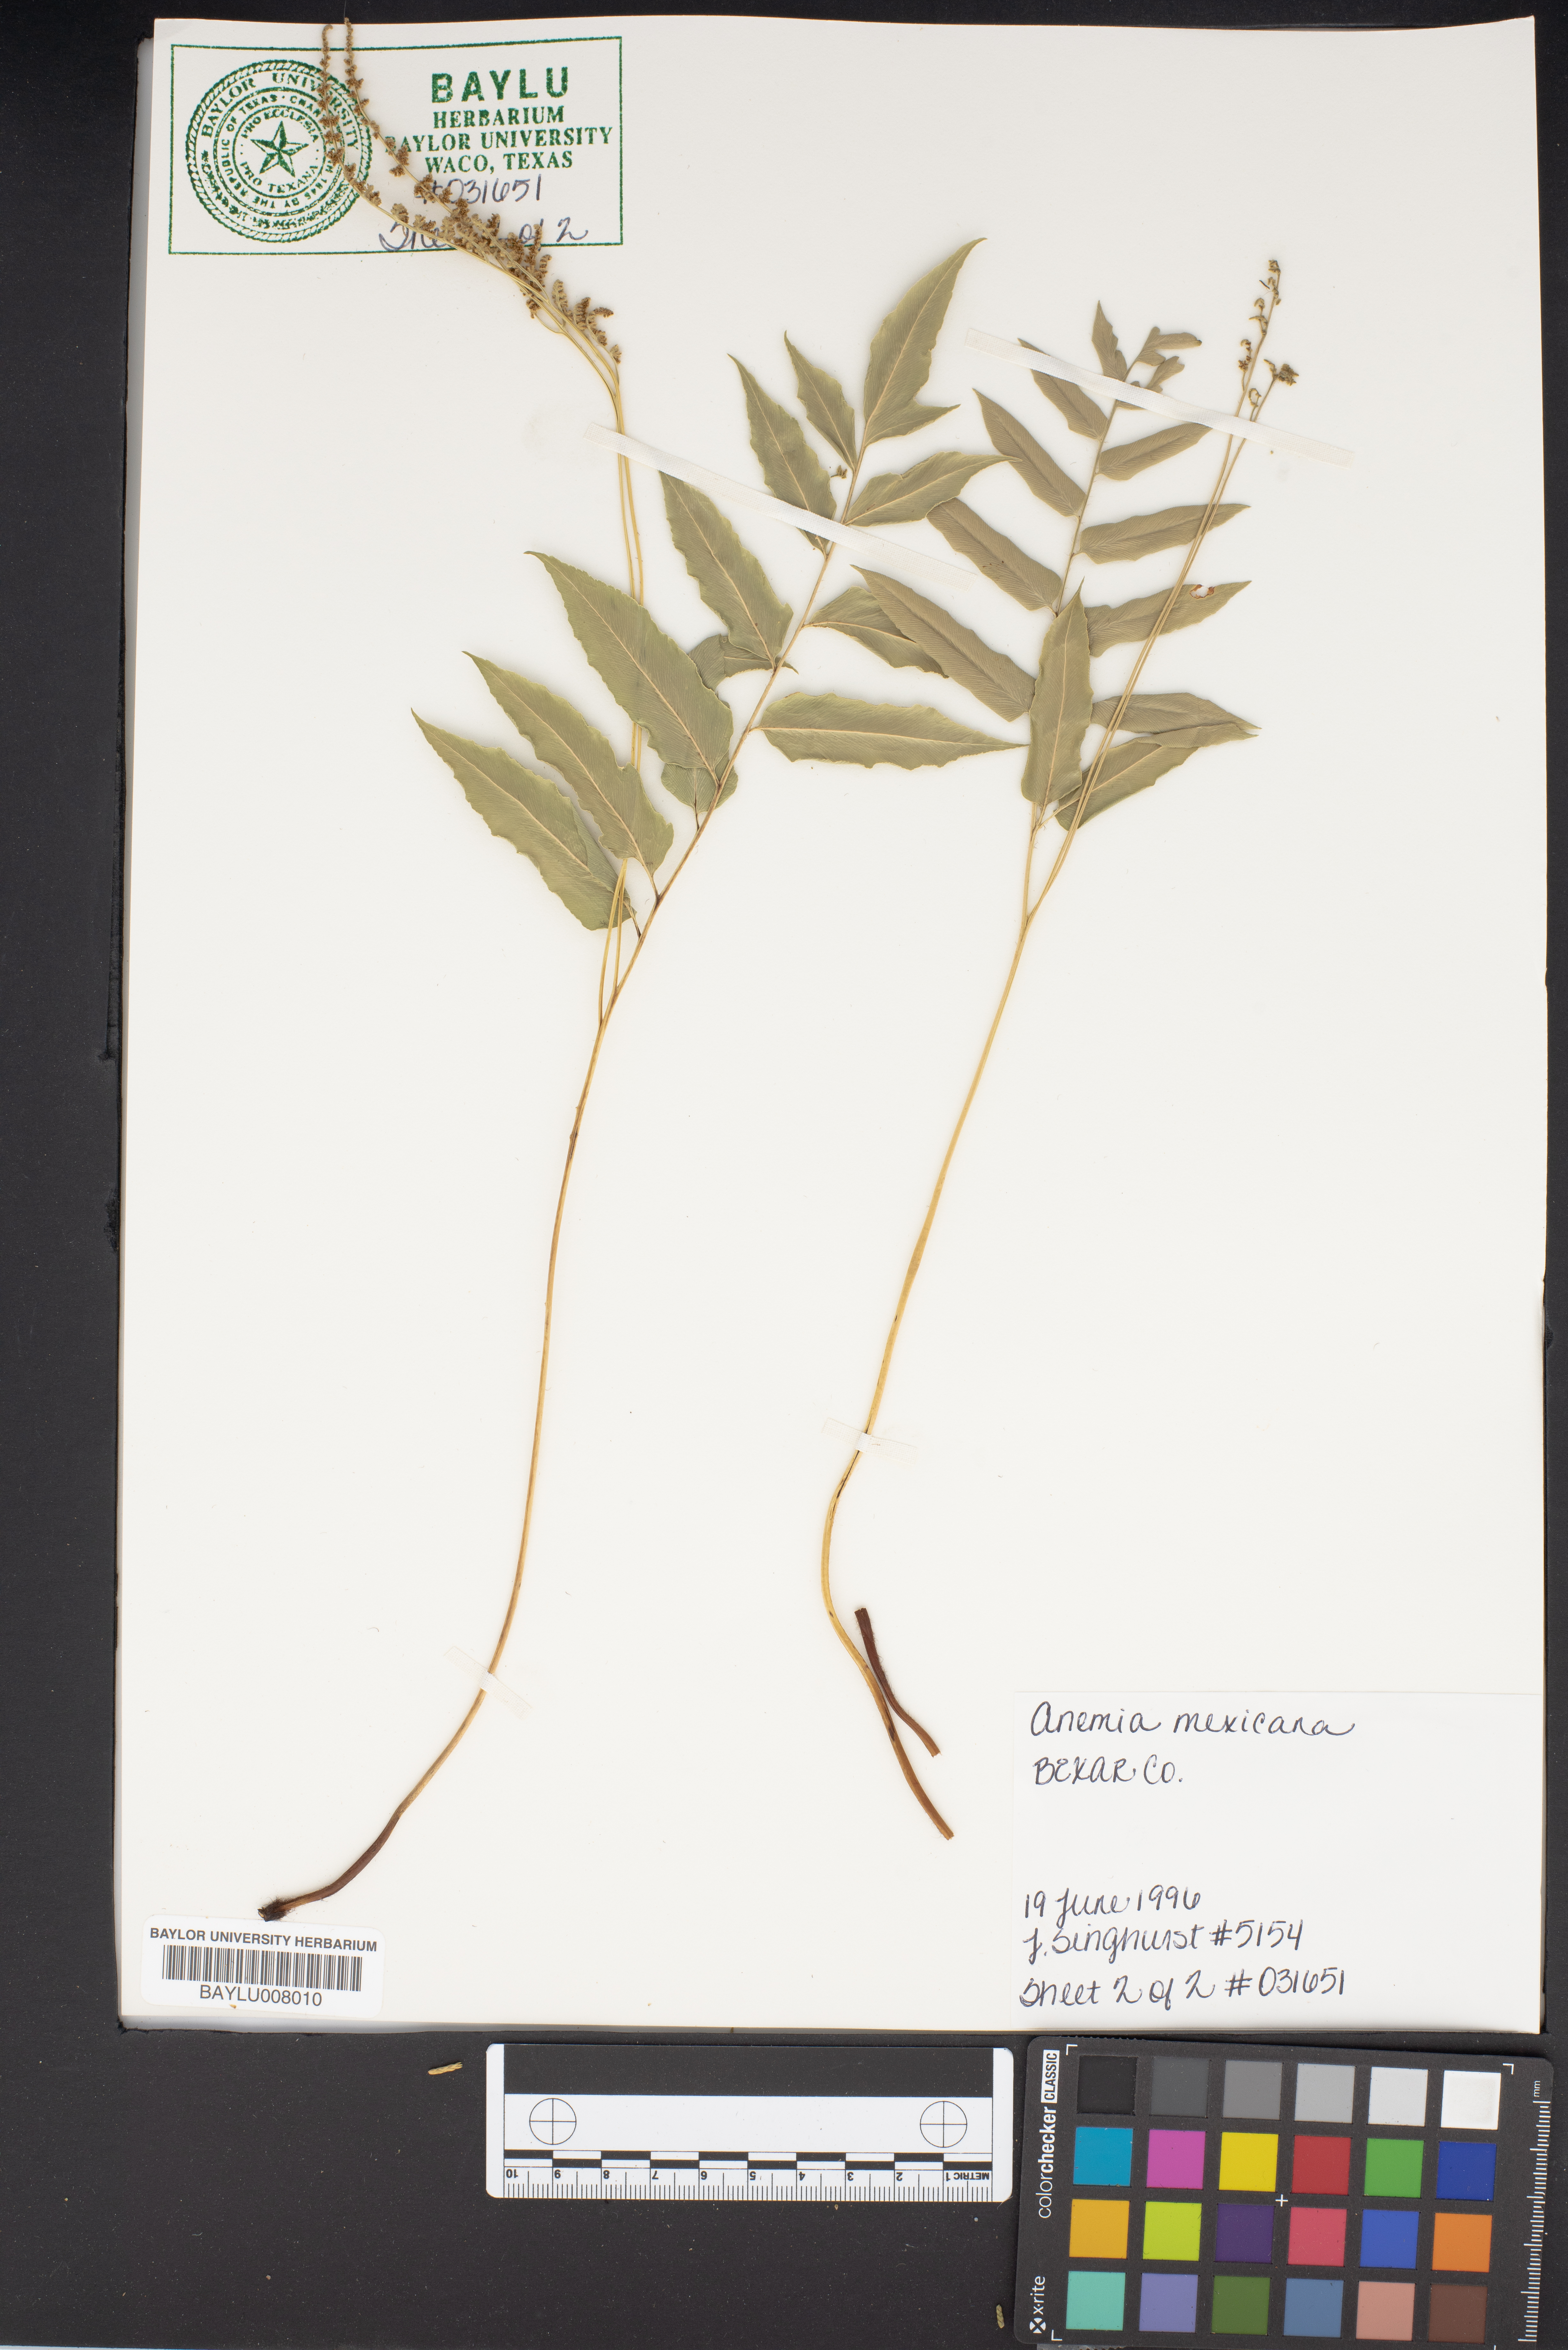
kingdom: Plantae
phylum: Tracheophyta
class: Polypodiopsida
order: Schizaeales
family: Anemiaceae
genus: Anemia
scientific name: Anemia mexicana
